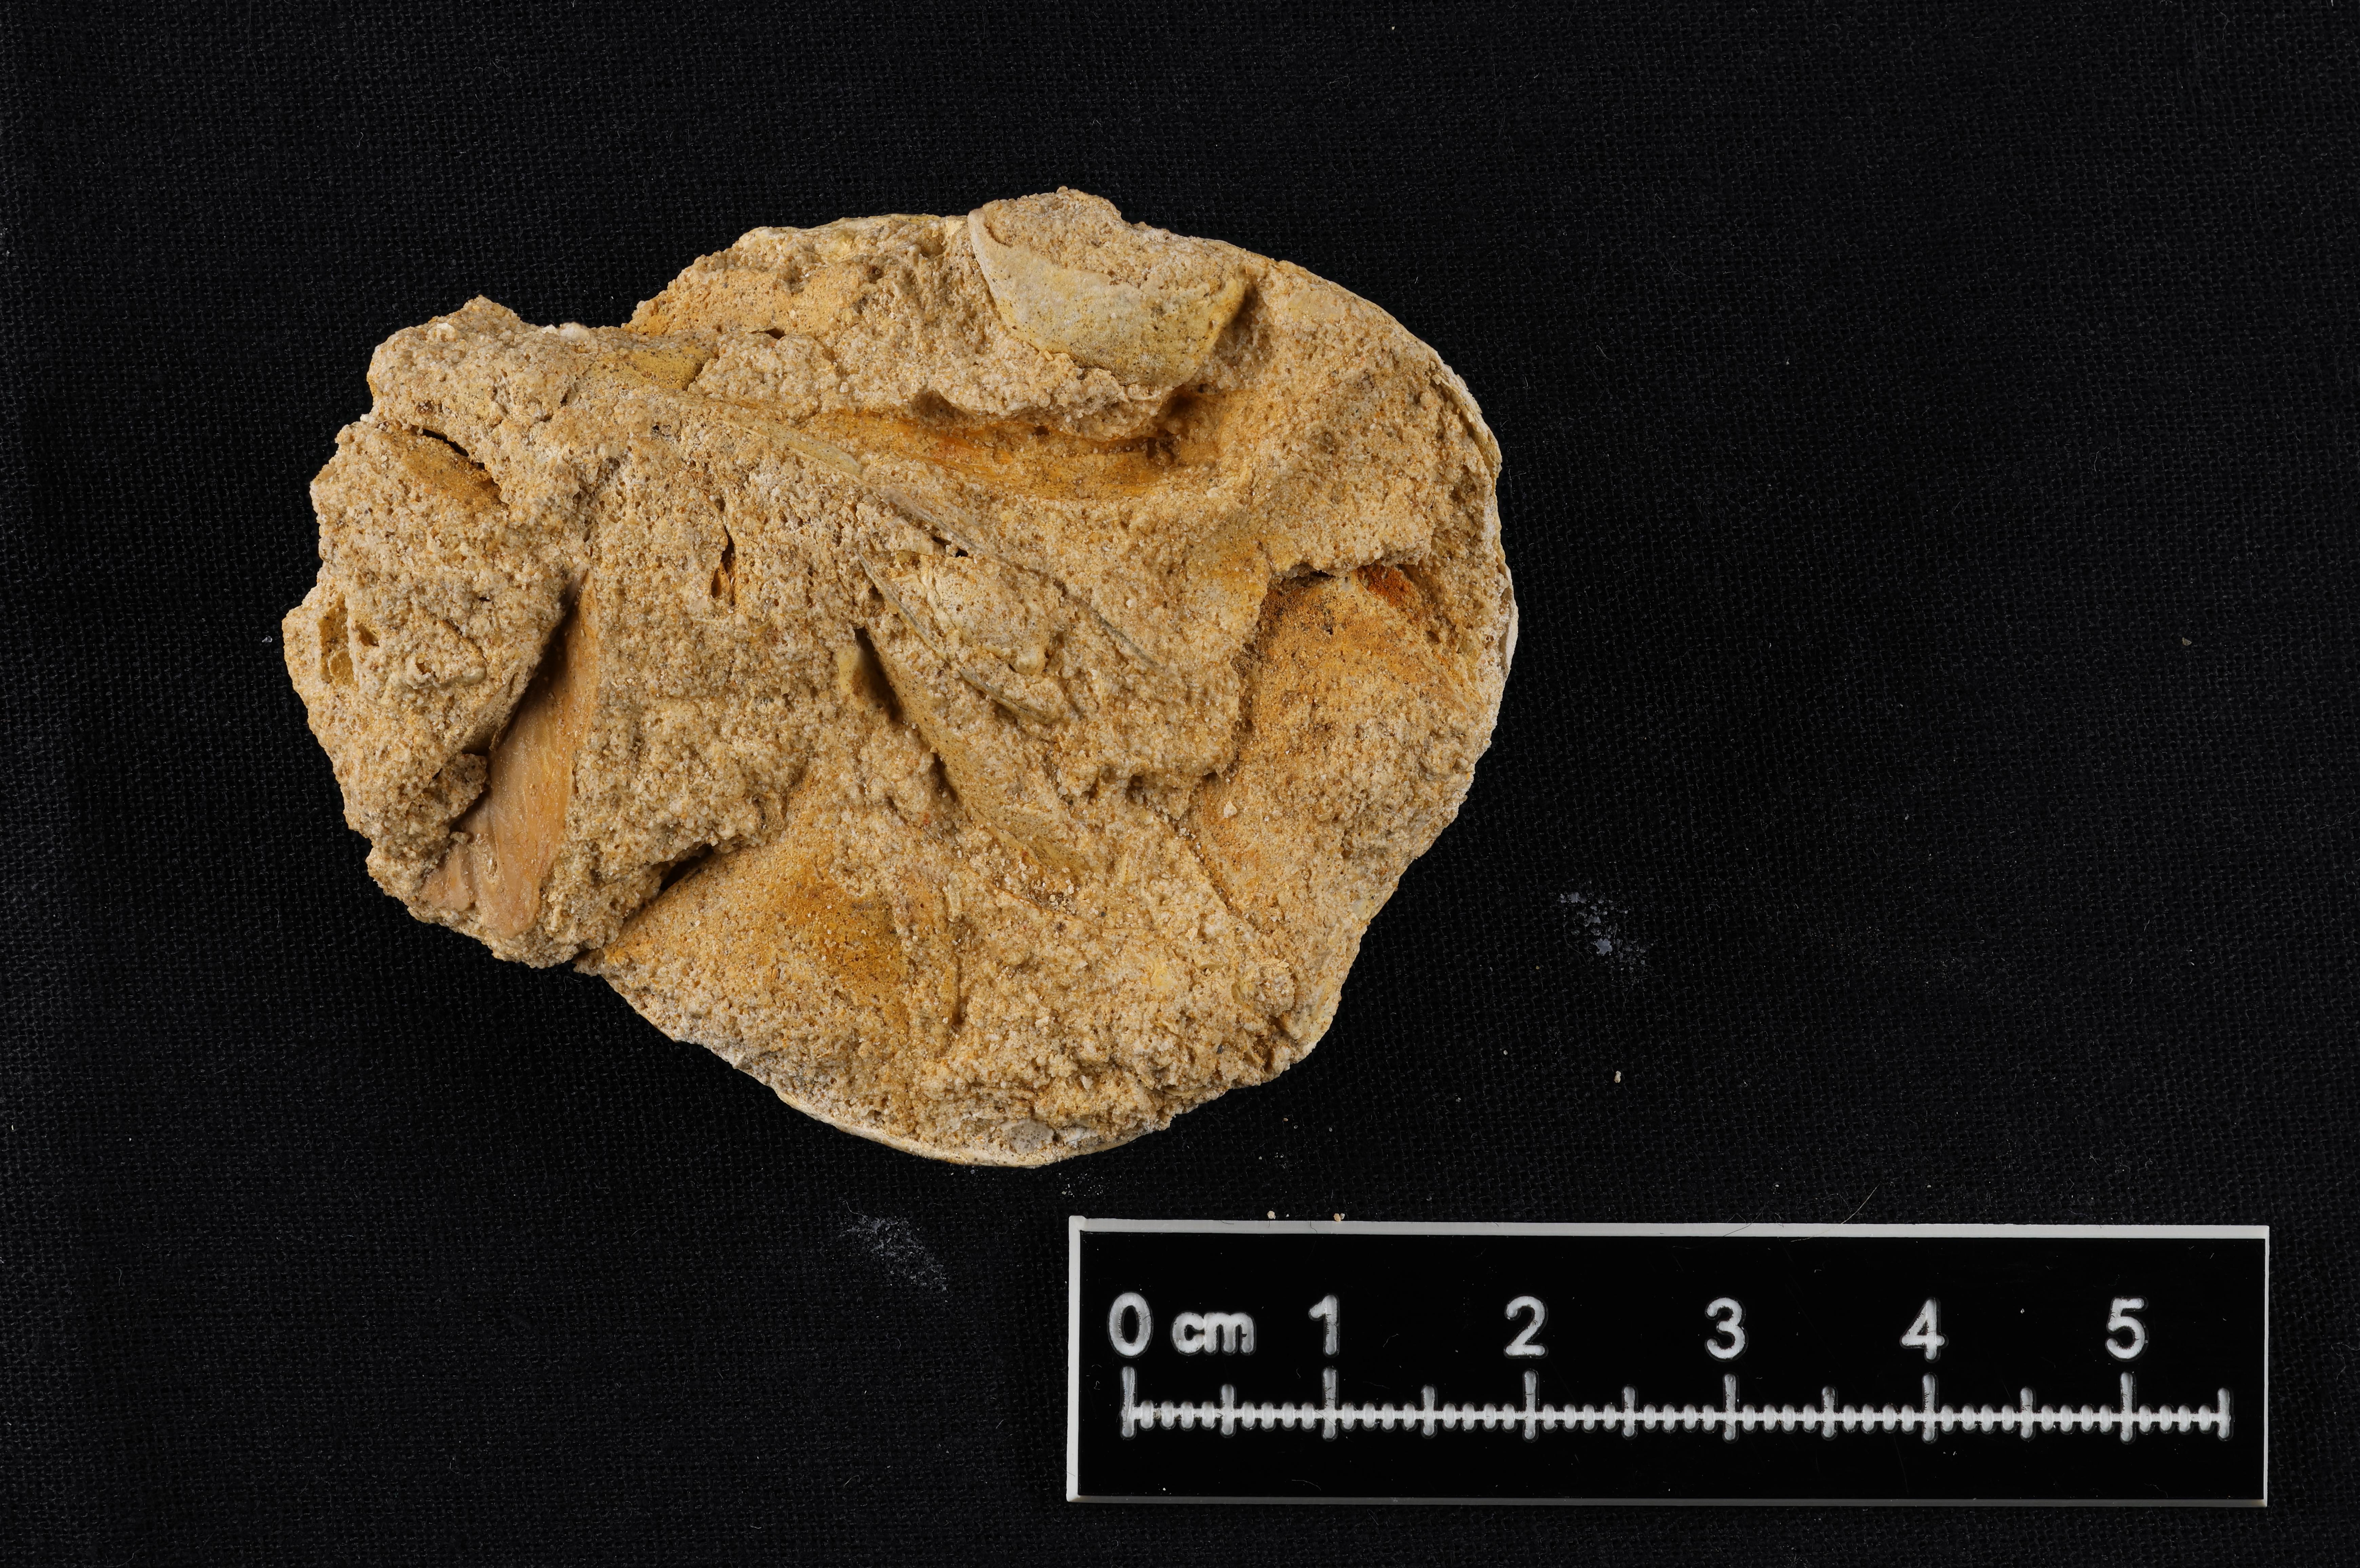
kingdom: Animalia
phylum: Mollusca
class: Bivalvia
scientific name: Bivalvia
